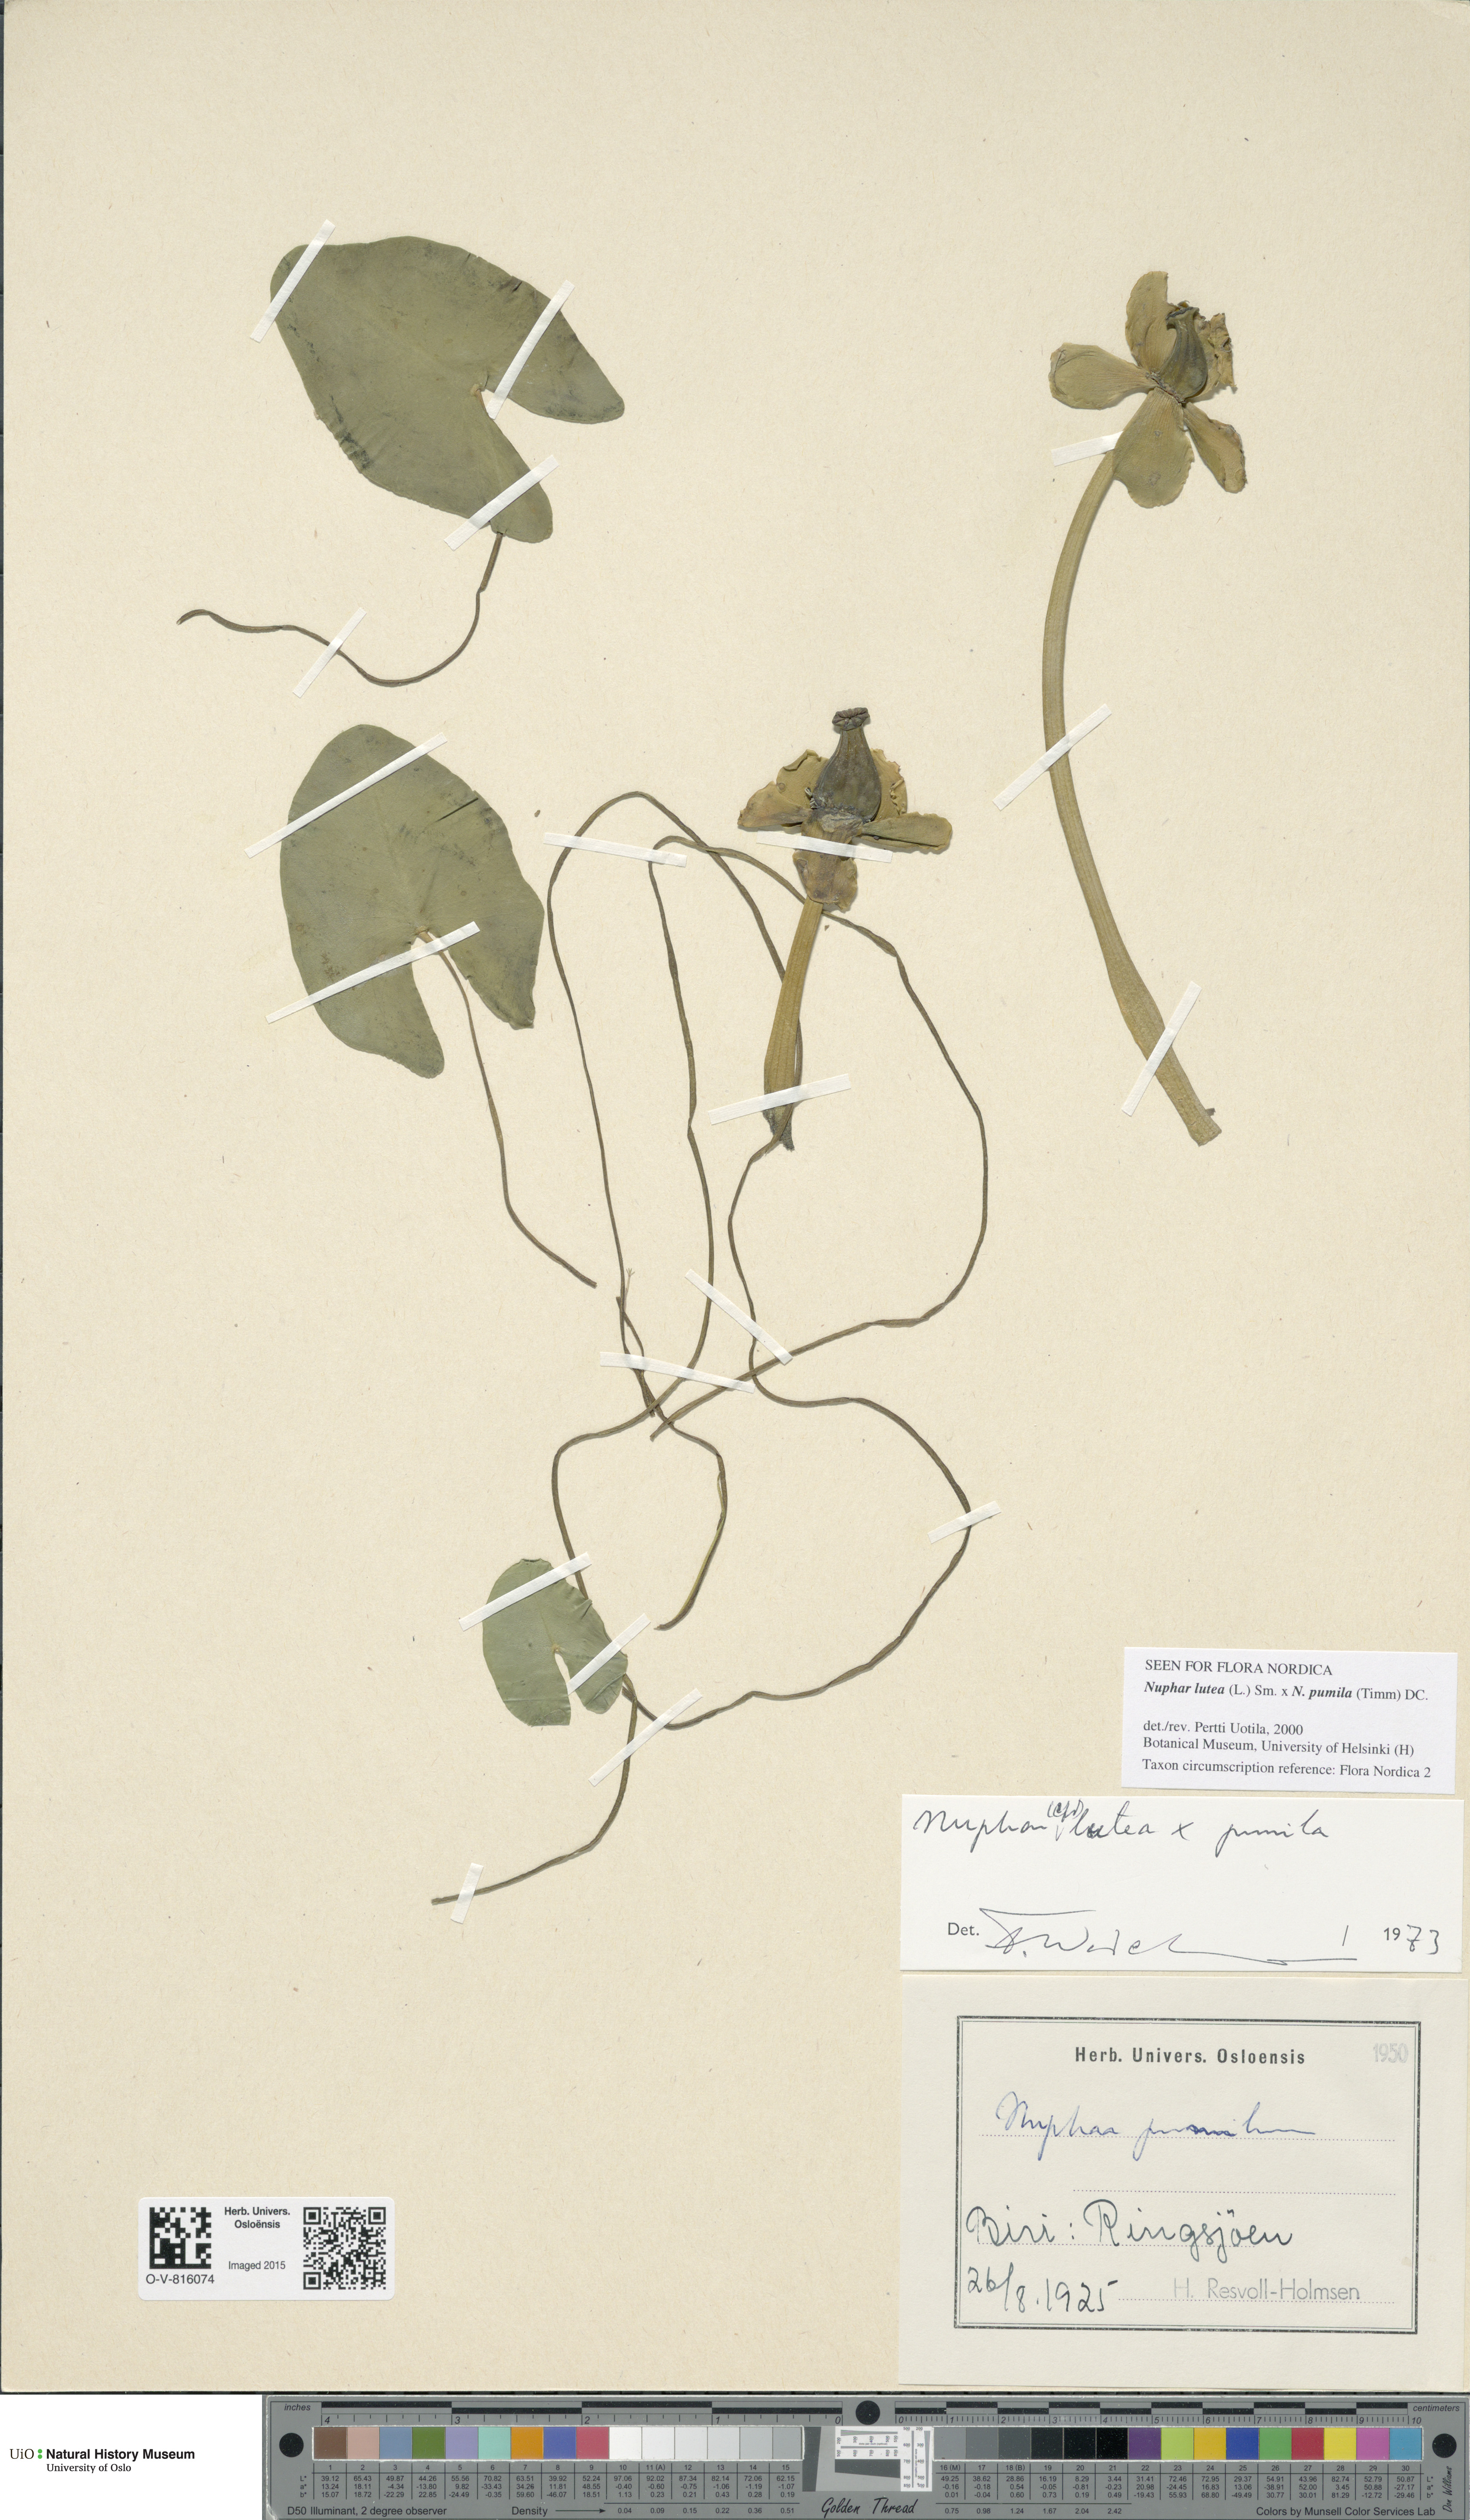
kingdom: Plantae
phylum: Tracheophyta
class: Magnoliopsida
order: Nymphaeales
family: Nymphaeaceae
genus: Nuphar
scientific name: Nuphar
